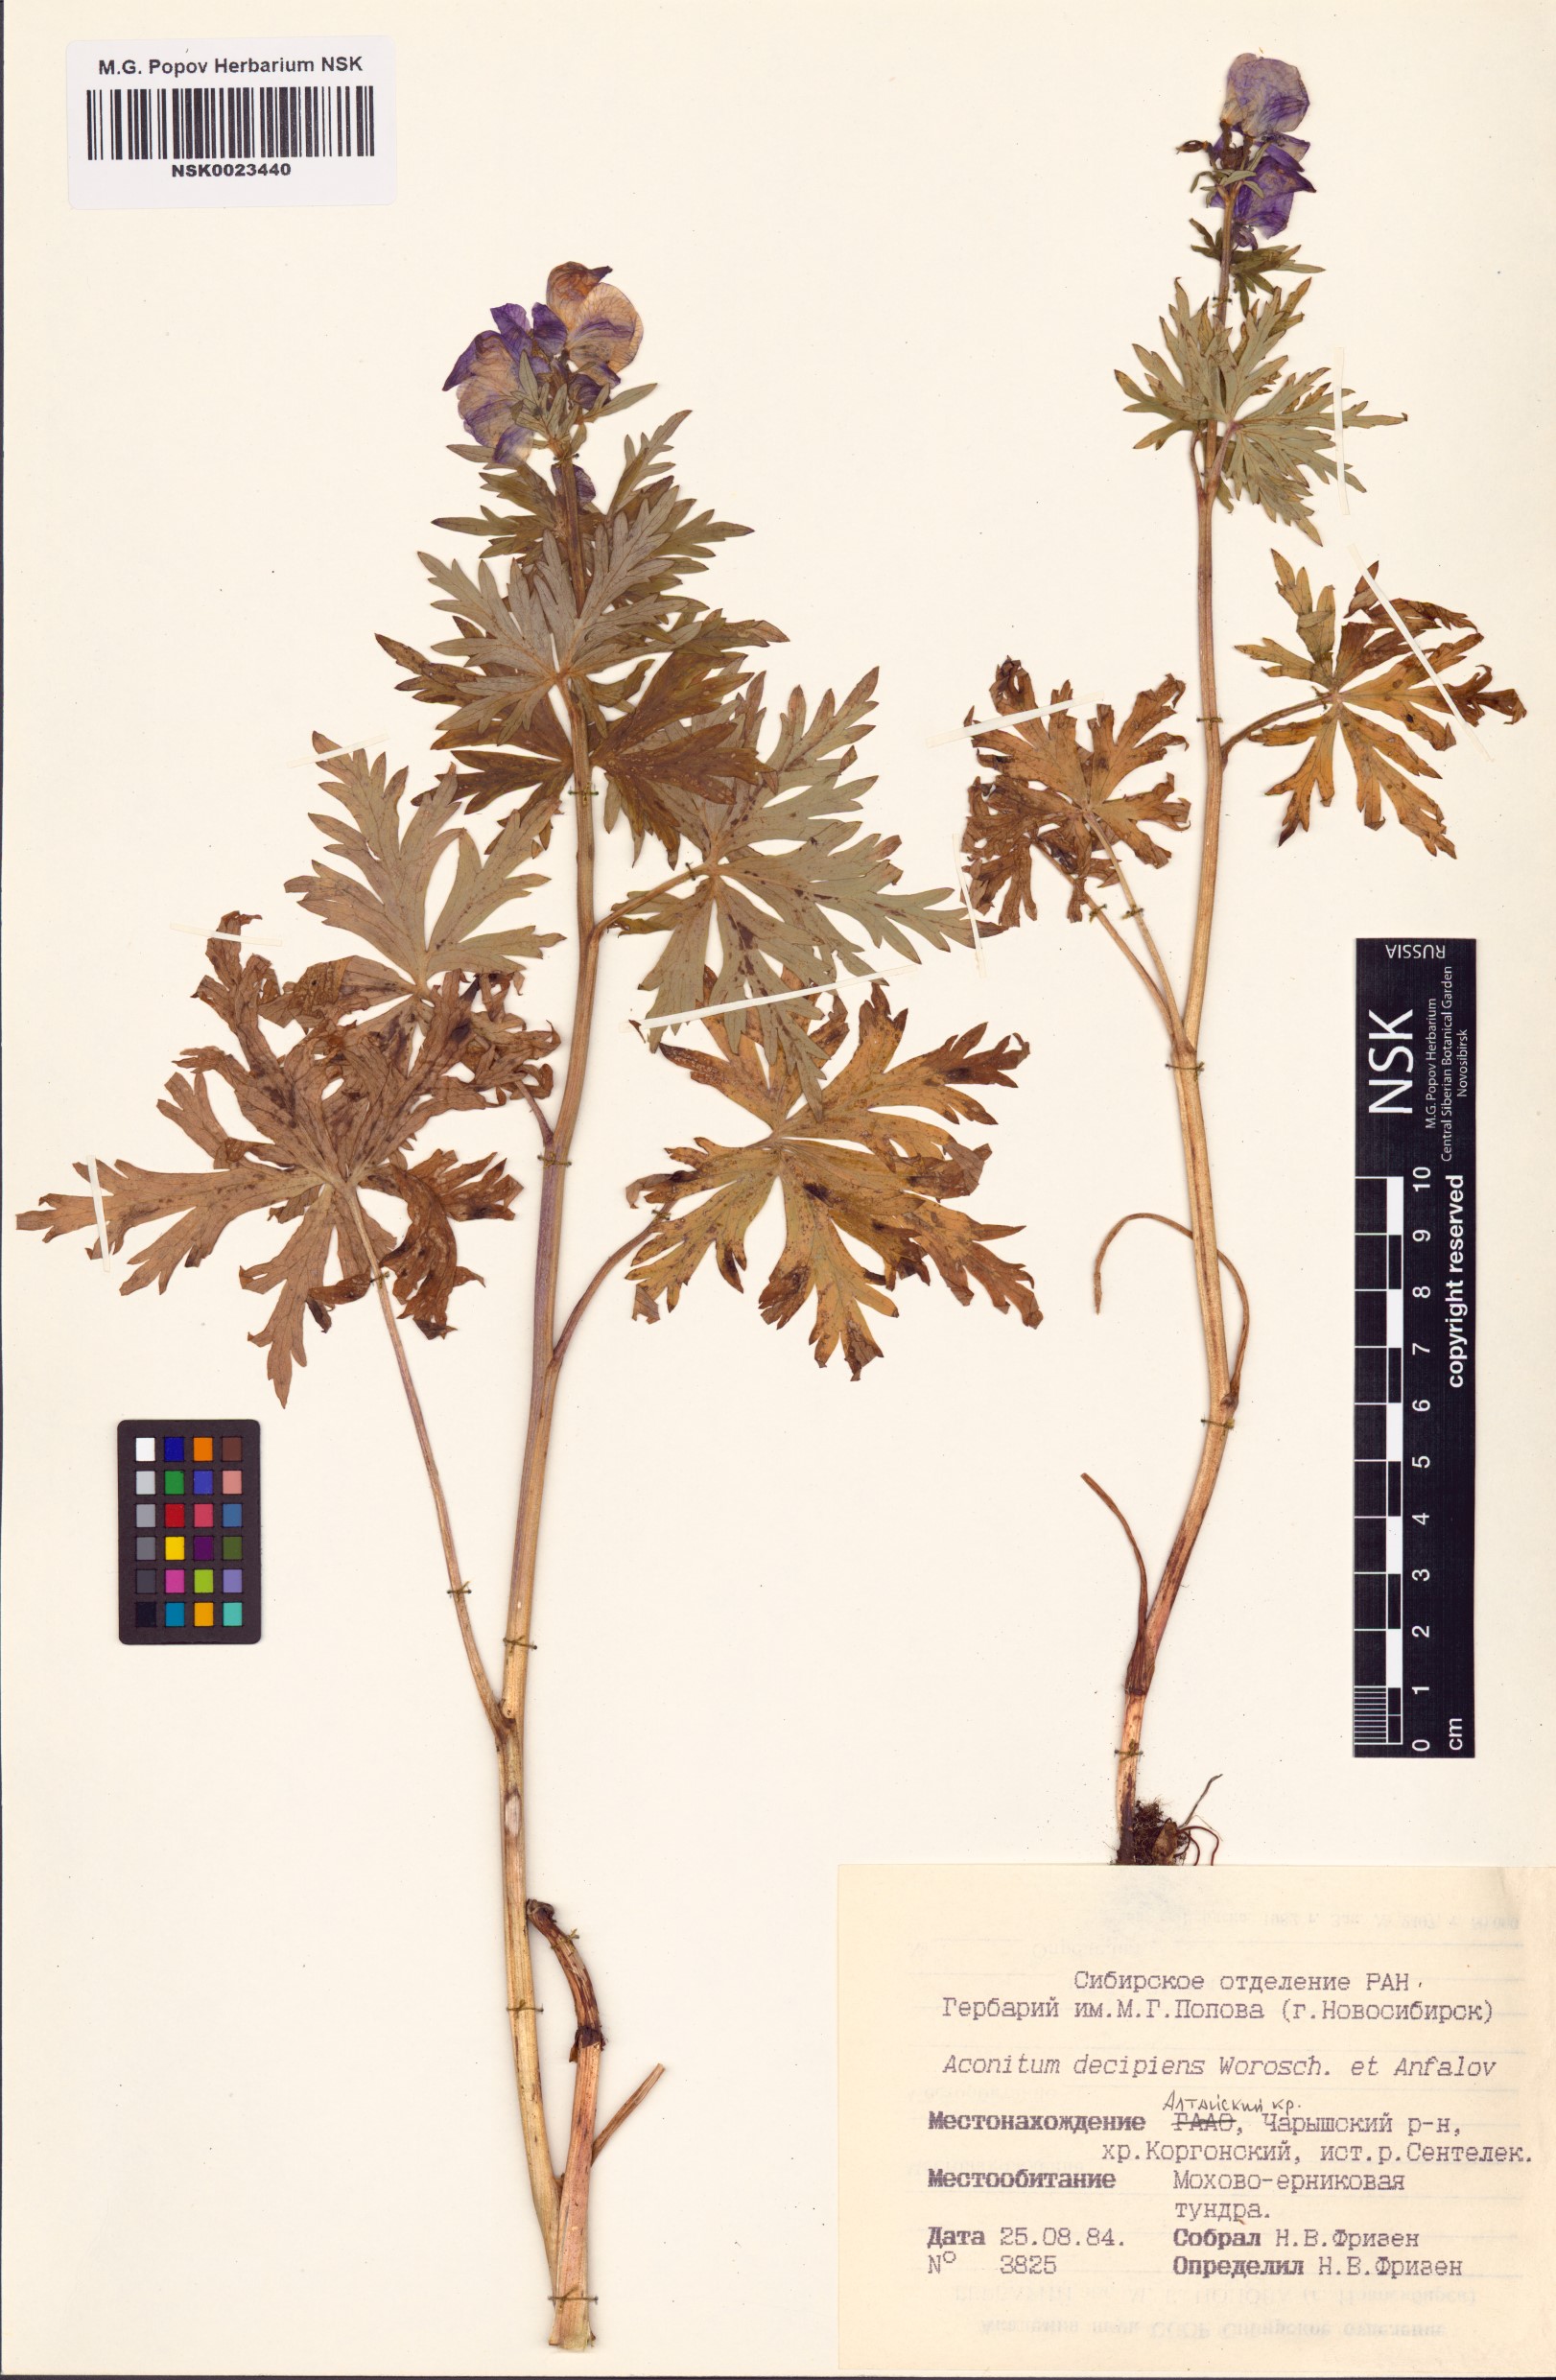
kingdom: Plantae
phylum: Tracheophyta
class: Magnoliopsida
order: Ranunculales
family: Ranunculaceae
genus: Aconitum
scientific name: Aconitum decipiens
